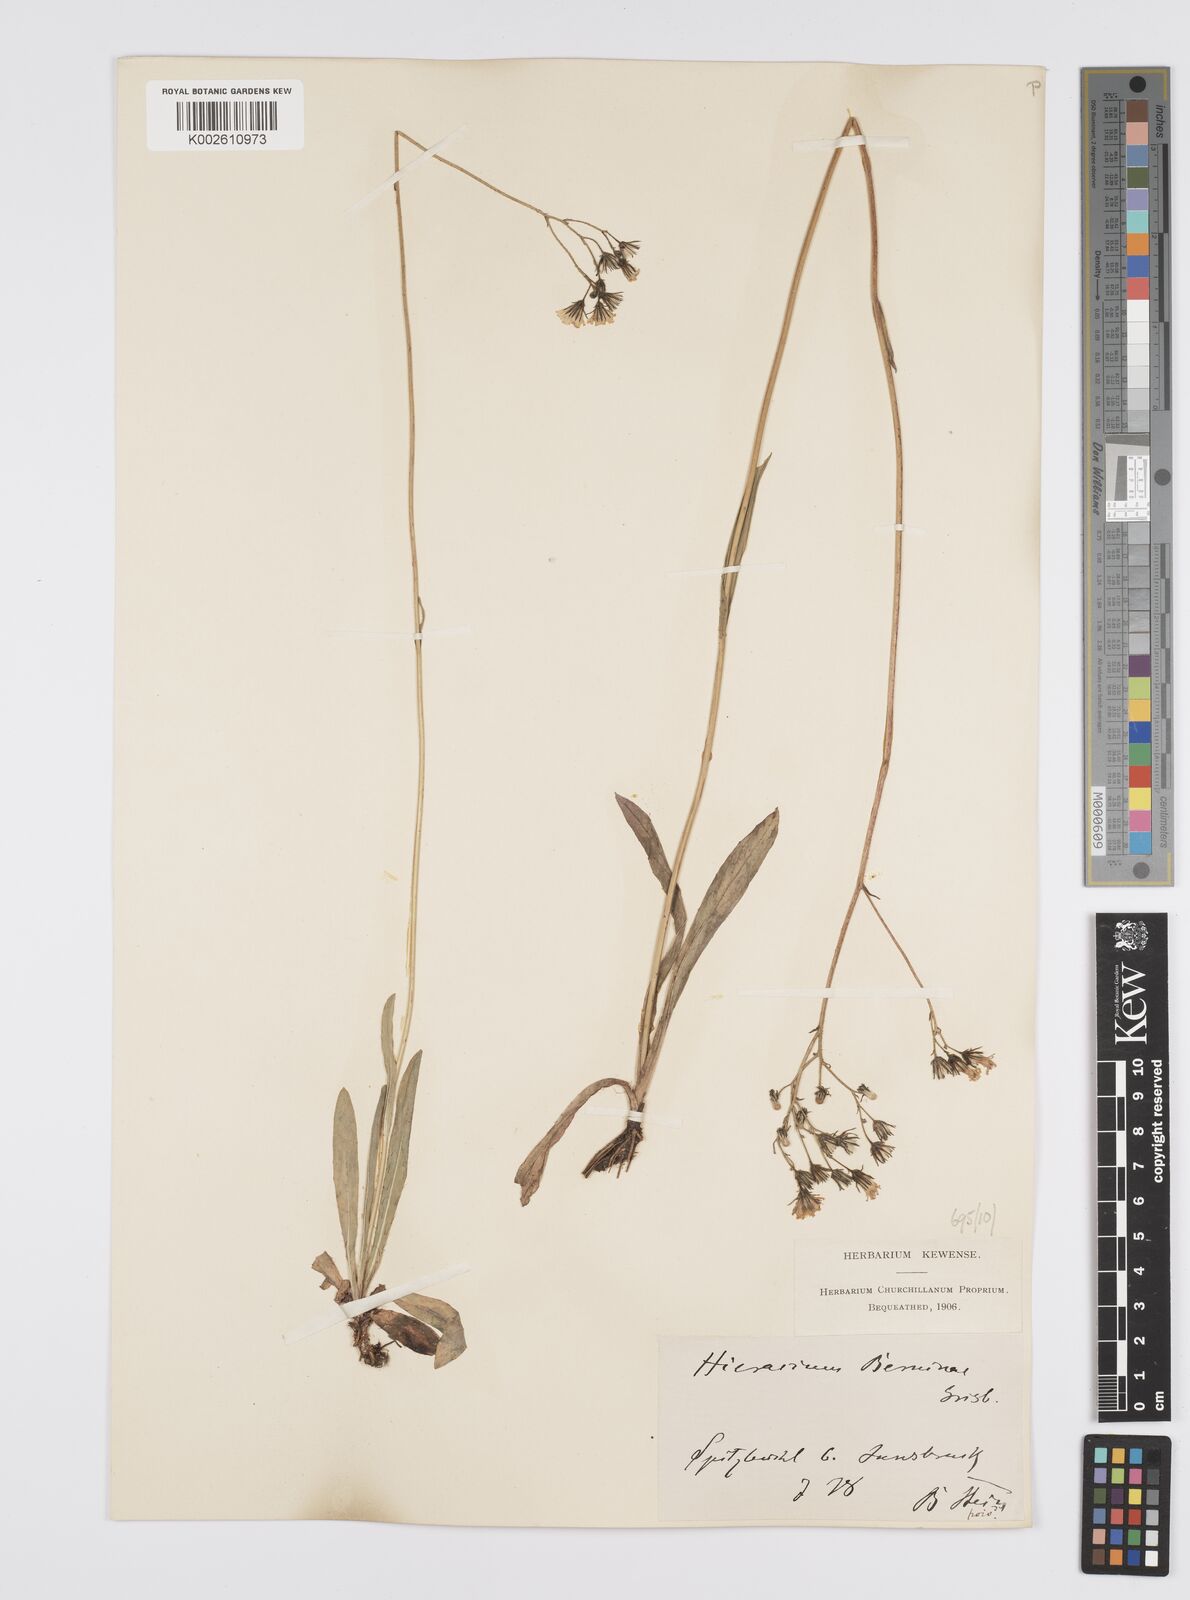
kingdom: Plantae
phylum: Tracheophyta
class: Magnoliopsida
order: Asterales
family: Asteraceae
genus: Pilosella
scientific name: Pilosella piloselloides
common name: Glaucous king-devil
